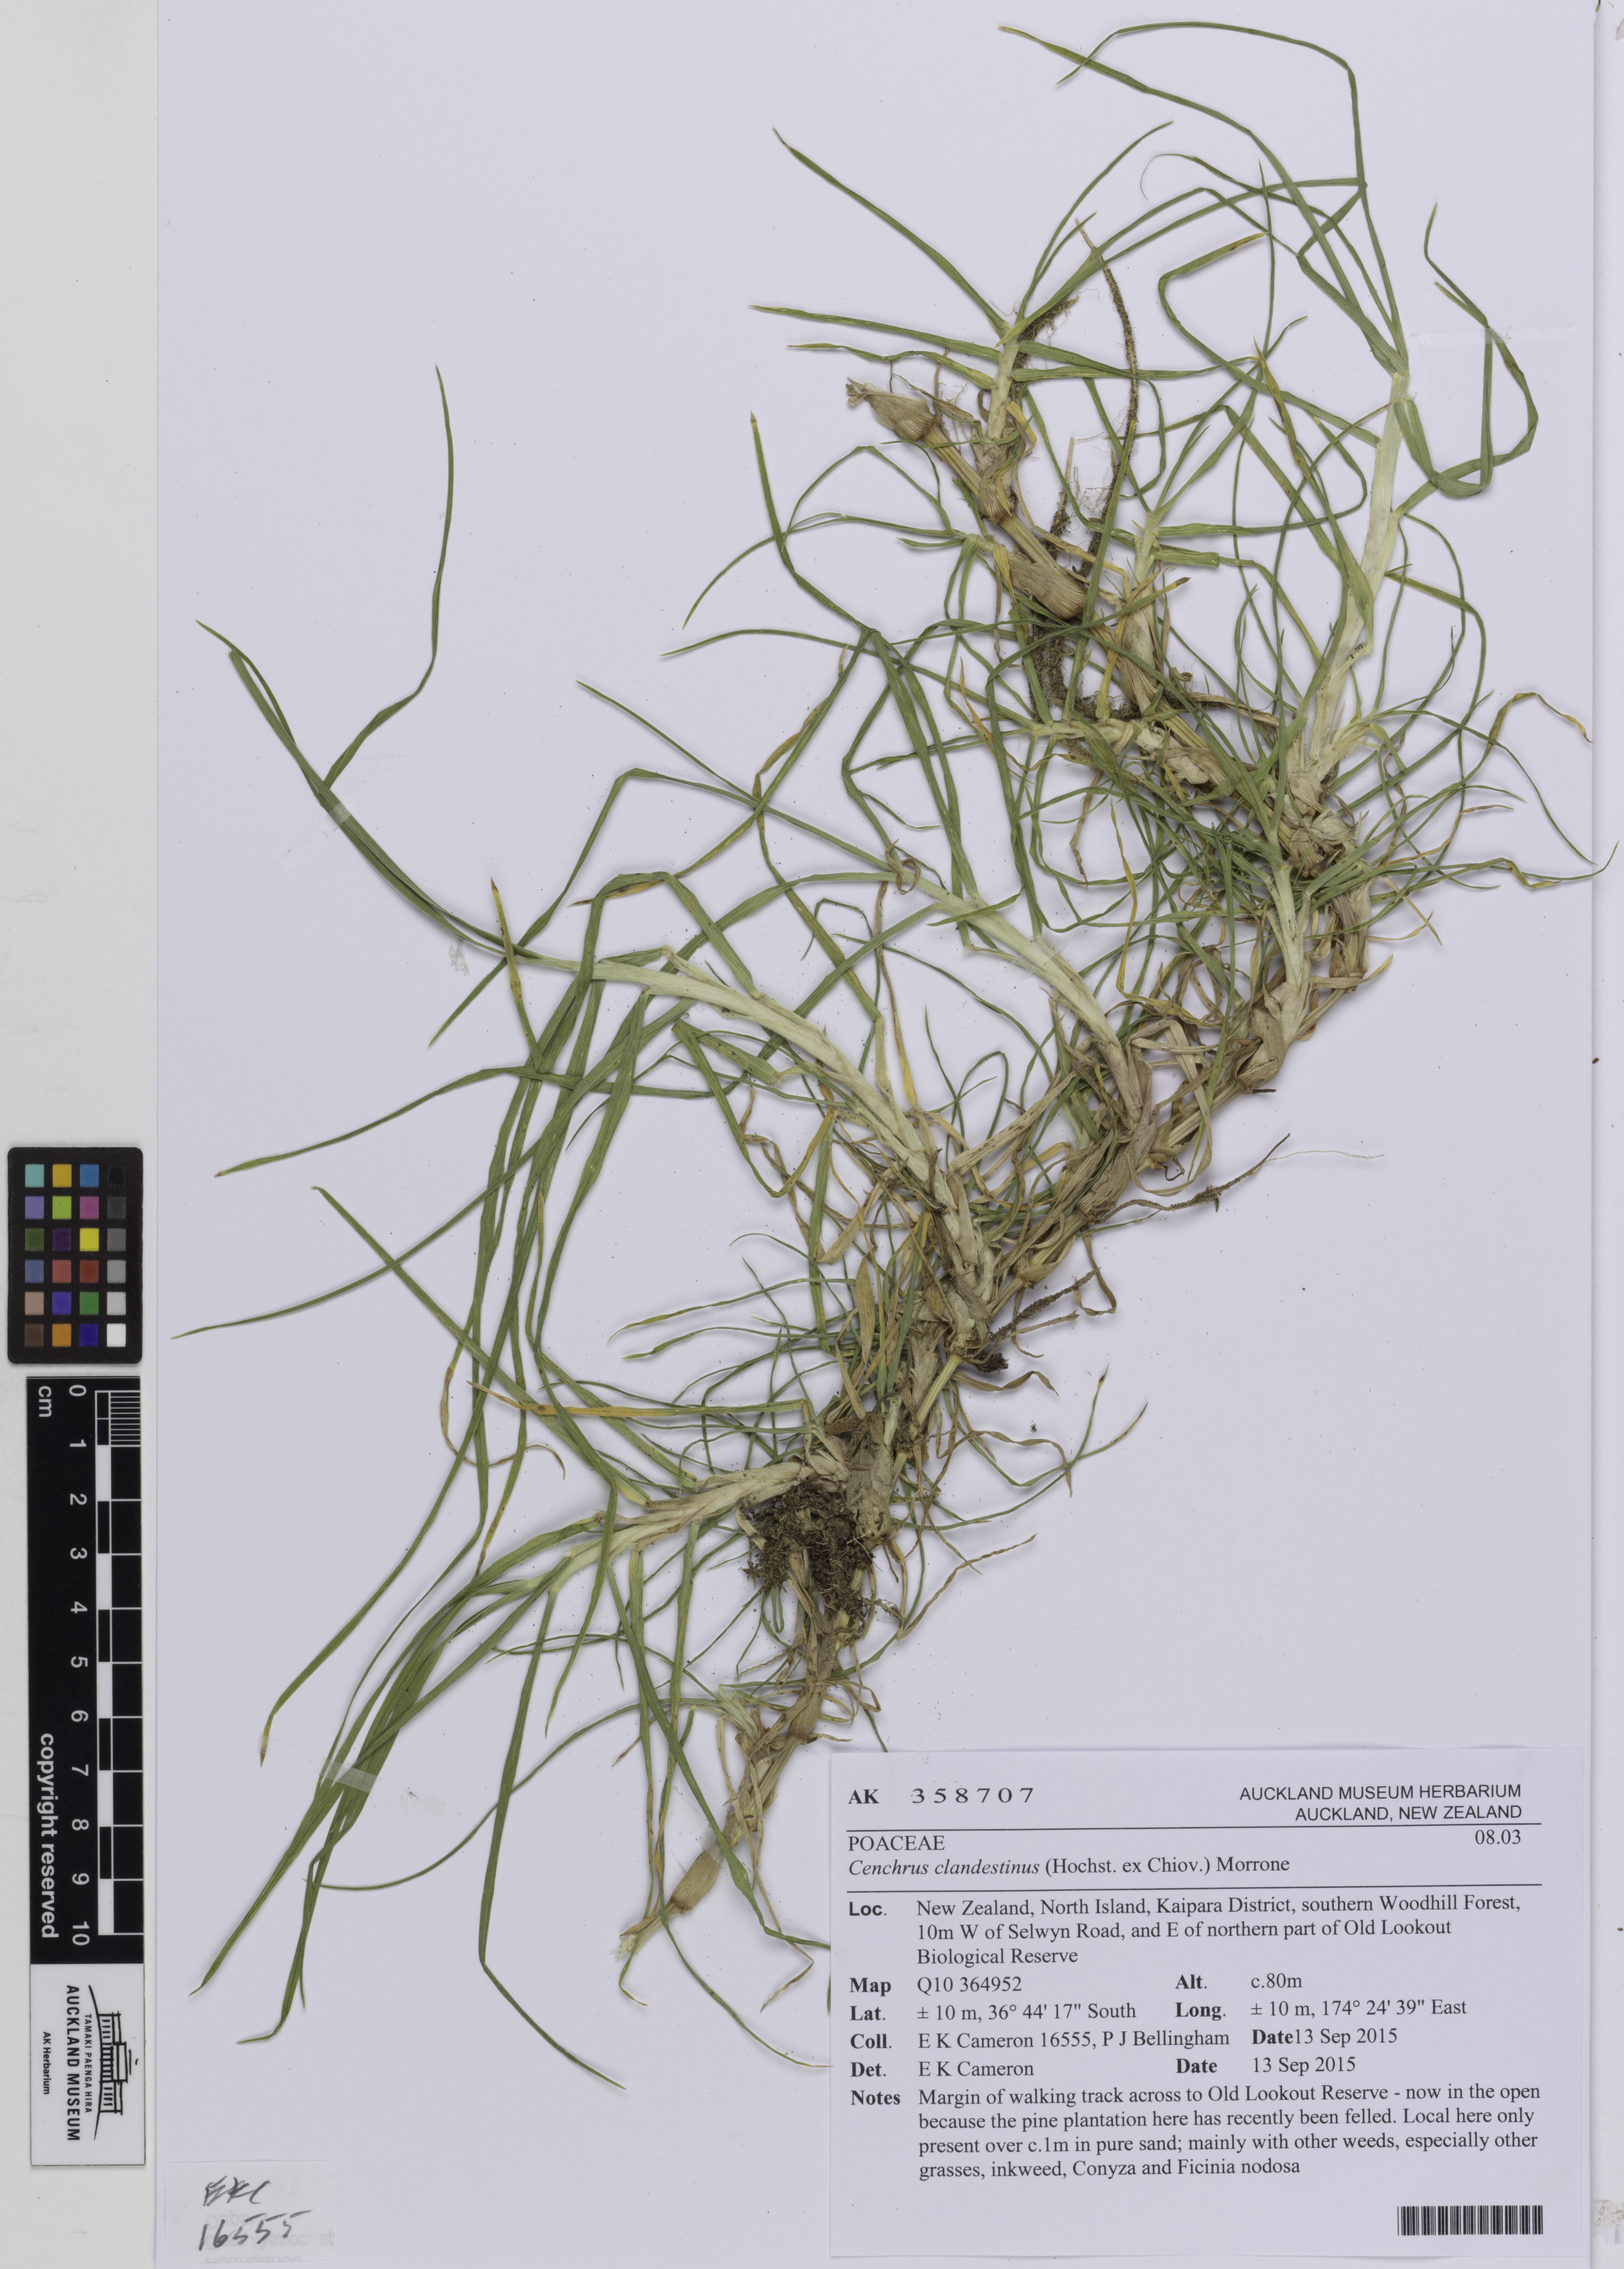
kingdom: Plantae
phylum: Tracheophyta
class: Liliopsida
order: Poales
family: Poaceae
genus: Cenchrus
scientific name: Cenchrus clandestinus
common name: Kikuyugrass
